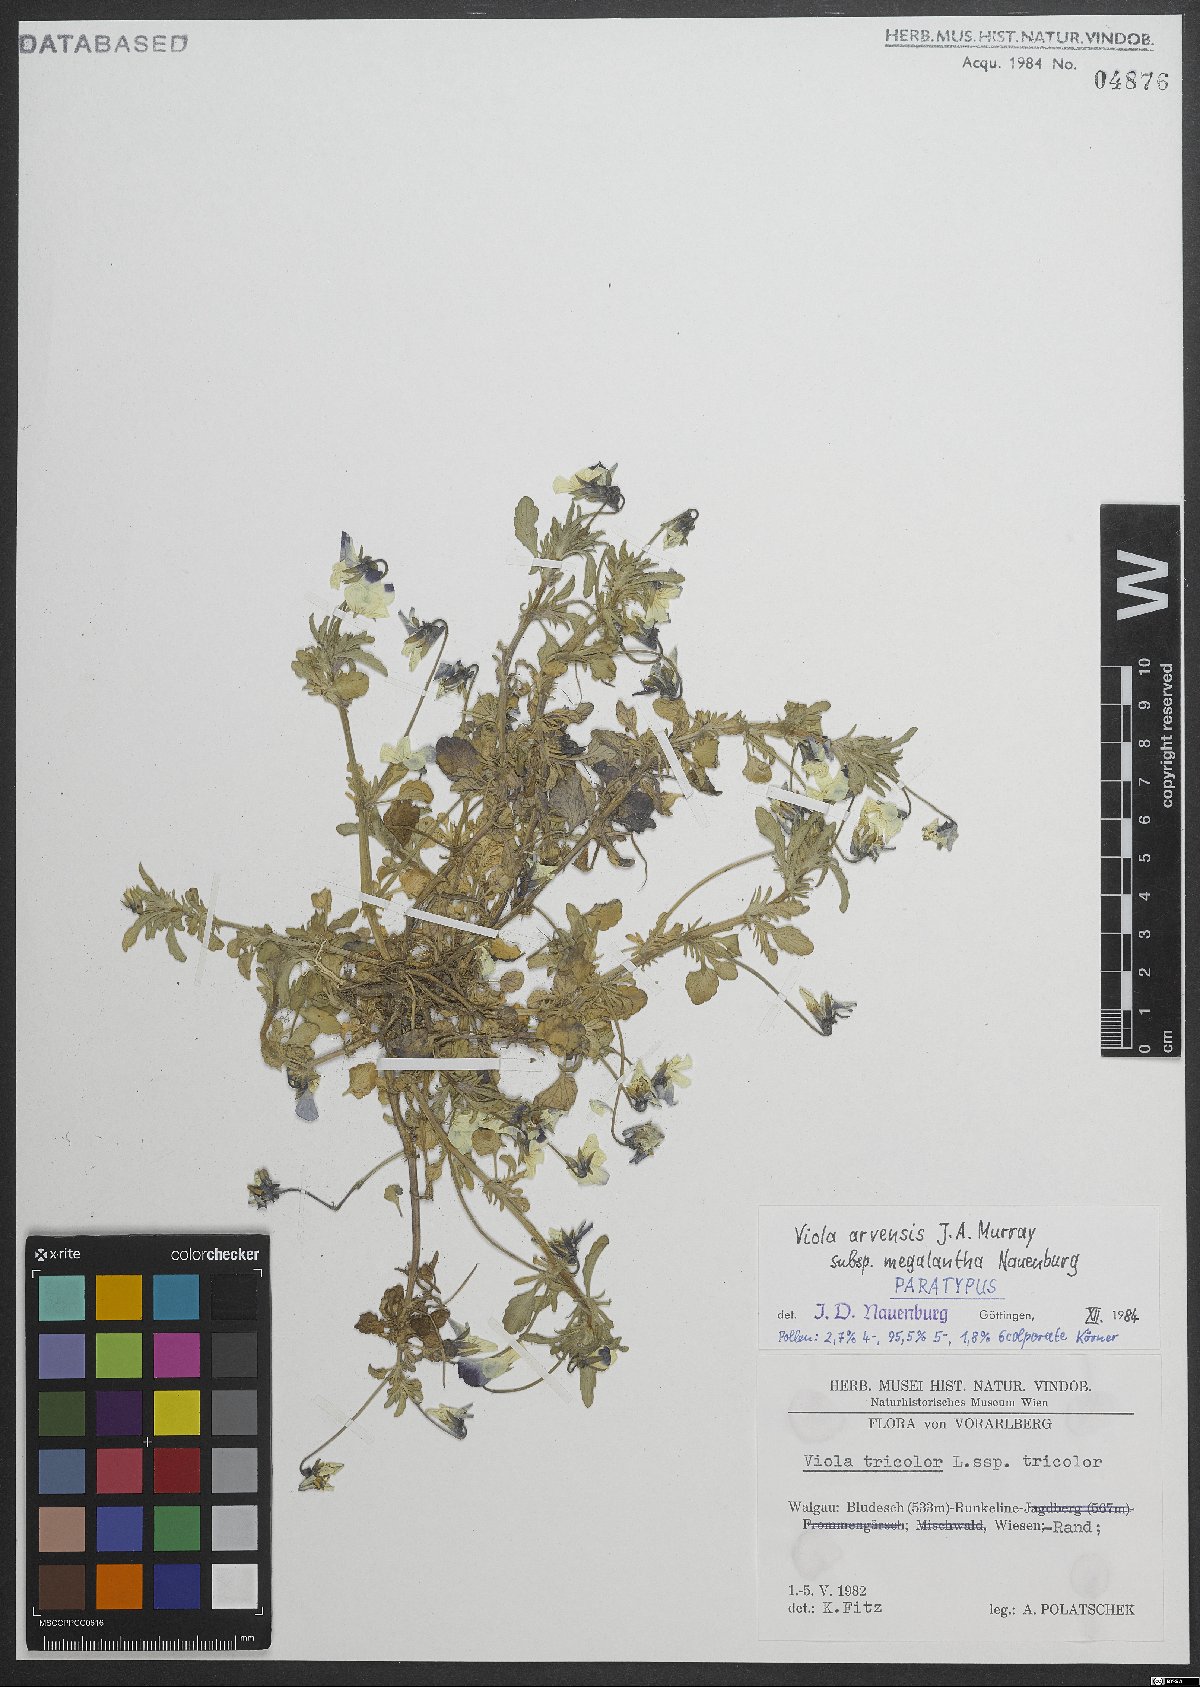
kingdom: Plantae
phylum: Tracheophyta
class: Magnoliopsida
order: Malpighiales
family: Violaceae
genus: Viola
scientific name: Viola arvensis
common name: Field pansy
